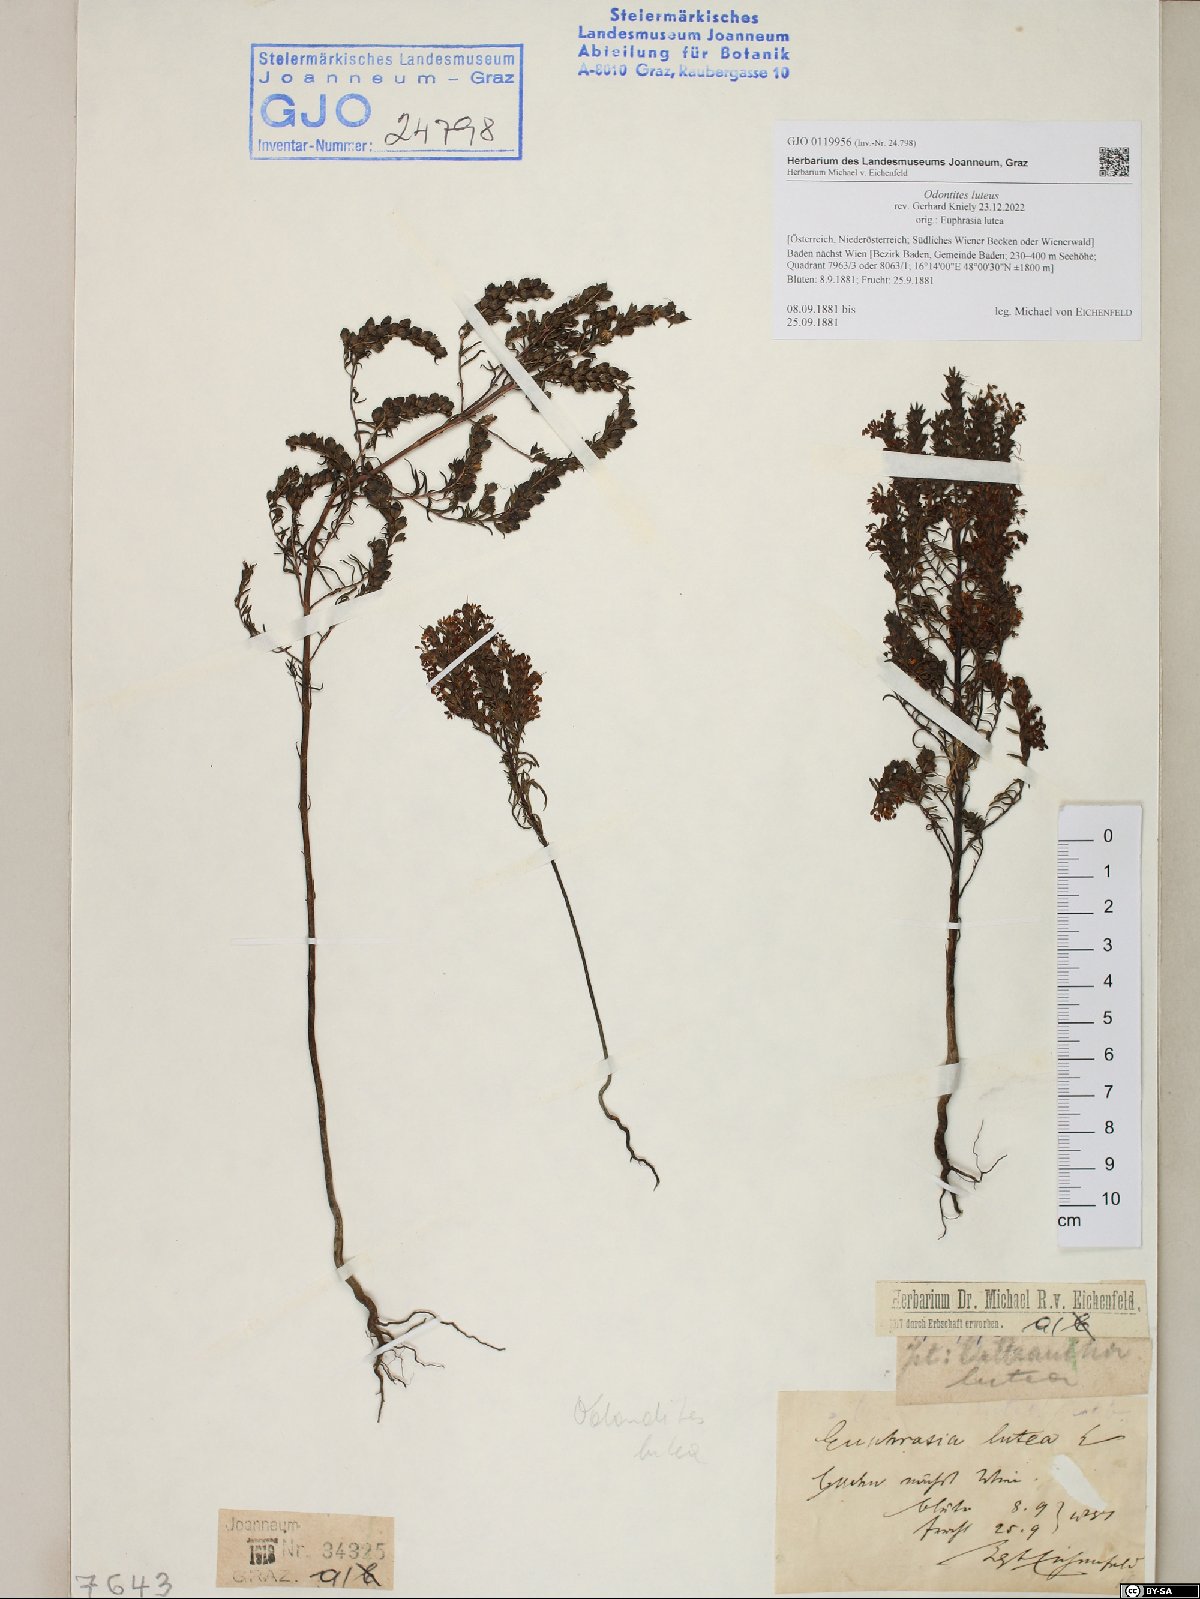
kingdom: Plantae
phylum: Tracheophyta
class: Magnoliopsida
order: Lamiales
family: Orobanchaceae
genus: Odontites
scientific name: Odontites luteus
